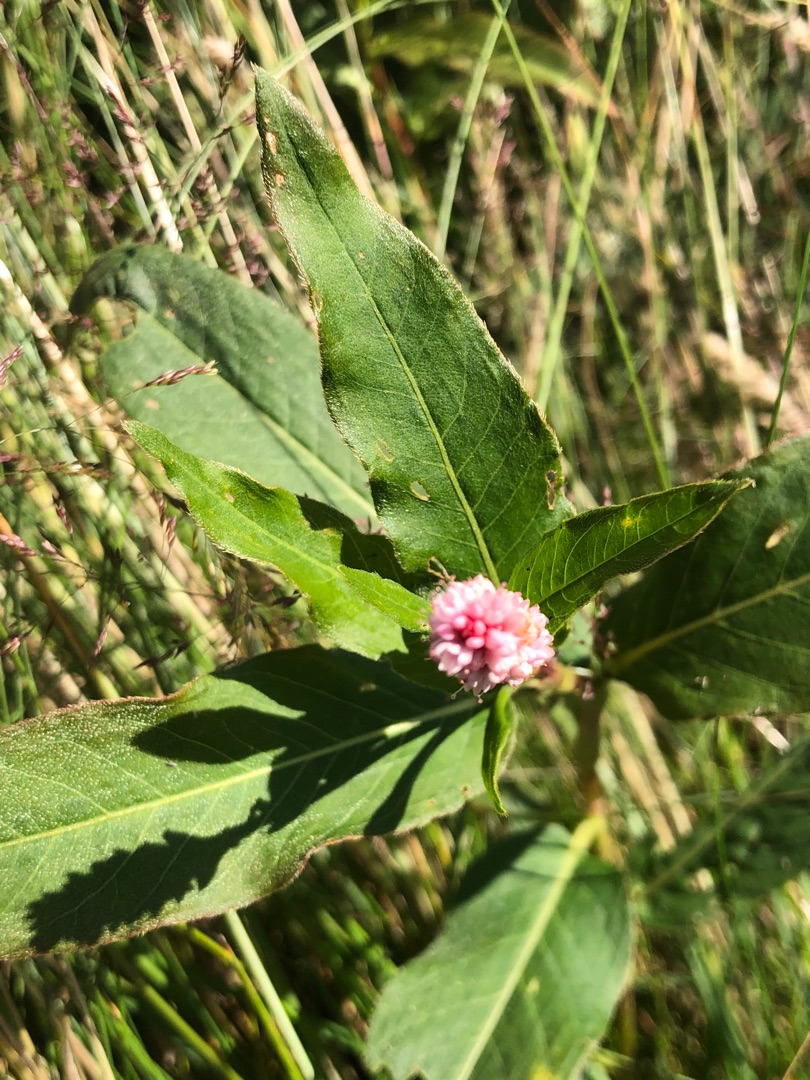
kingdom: Plantae
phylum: Tracheophyta
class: Magnoliopsida
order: Caryophyllales
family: Polygonaceae
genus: Persicaria
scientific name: Persicaria amphibia
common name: Vand-pileurt
